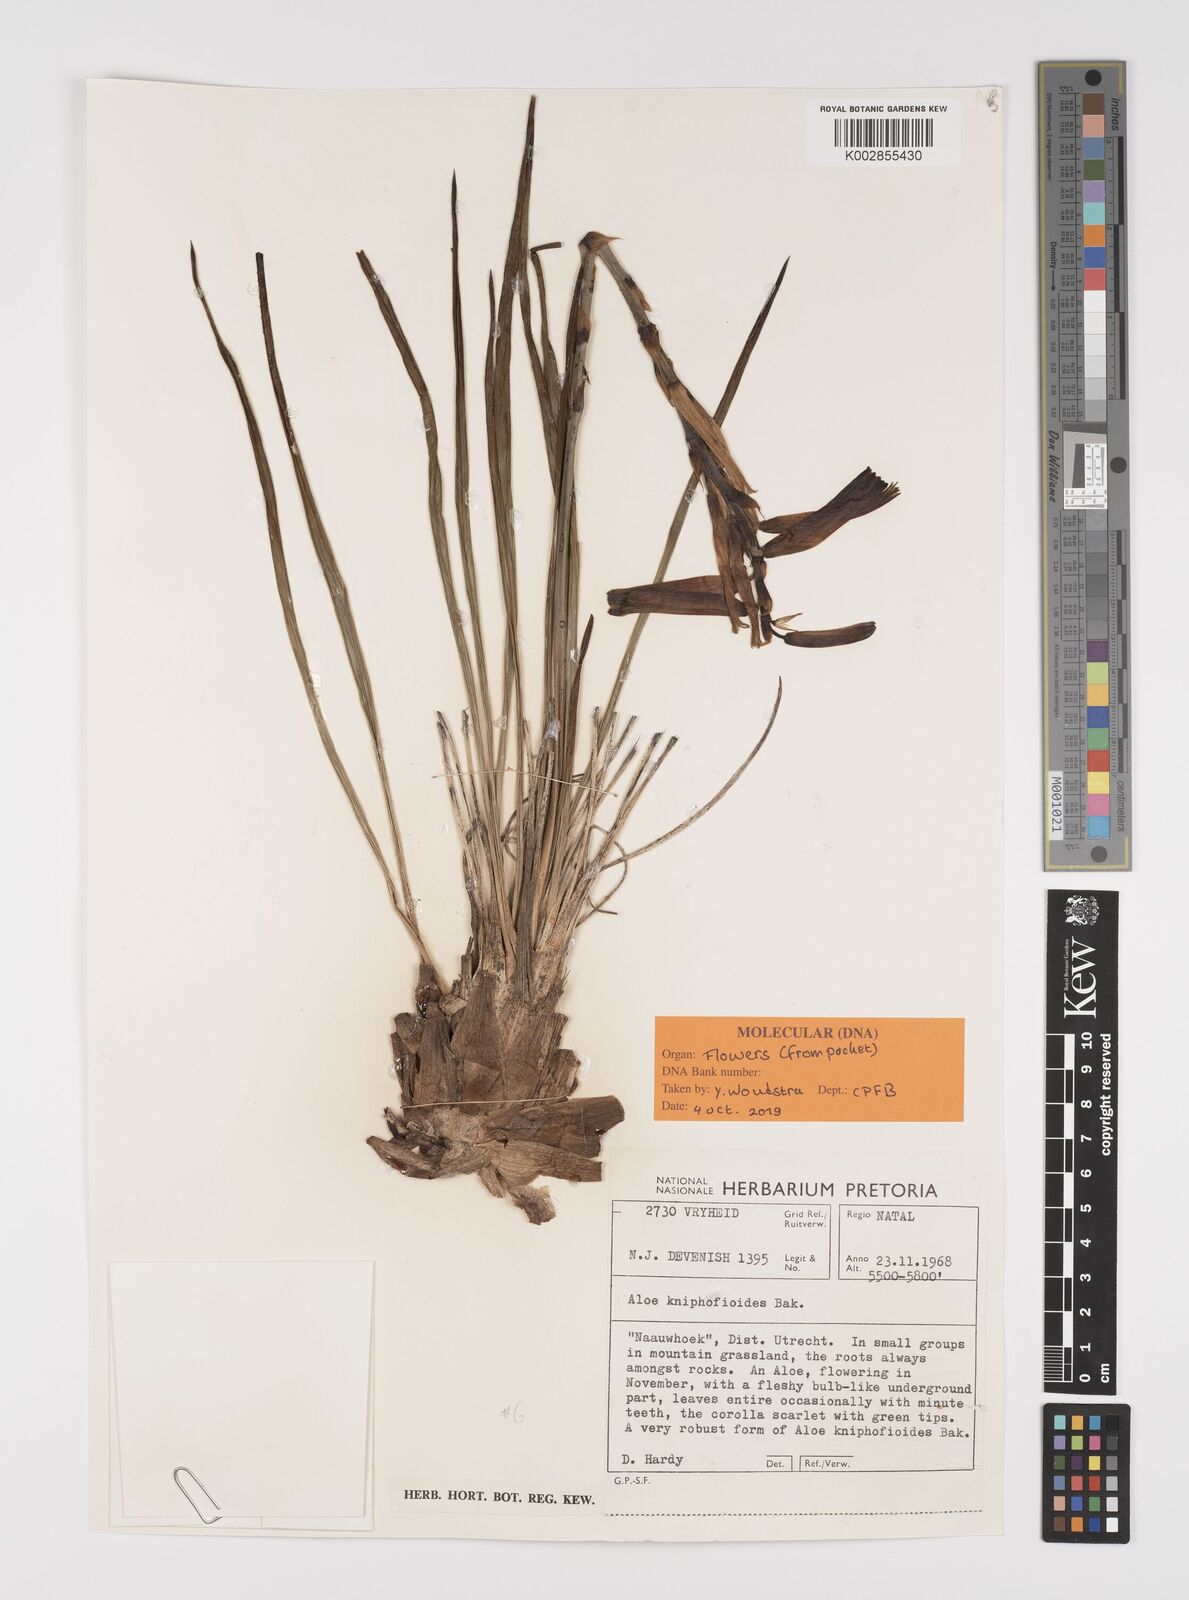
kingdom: Plantae
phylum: Tracheophyta
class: Liliopsida
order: Asparagales
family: Asphodelaceae
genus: Aloe
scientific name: Aloe kniphofioides
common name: Grass aloe
